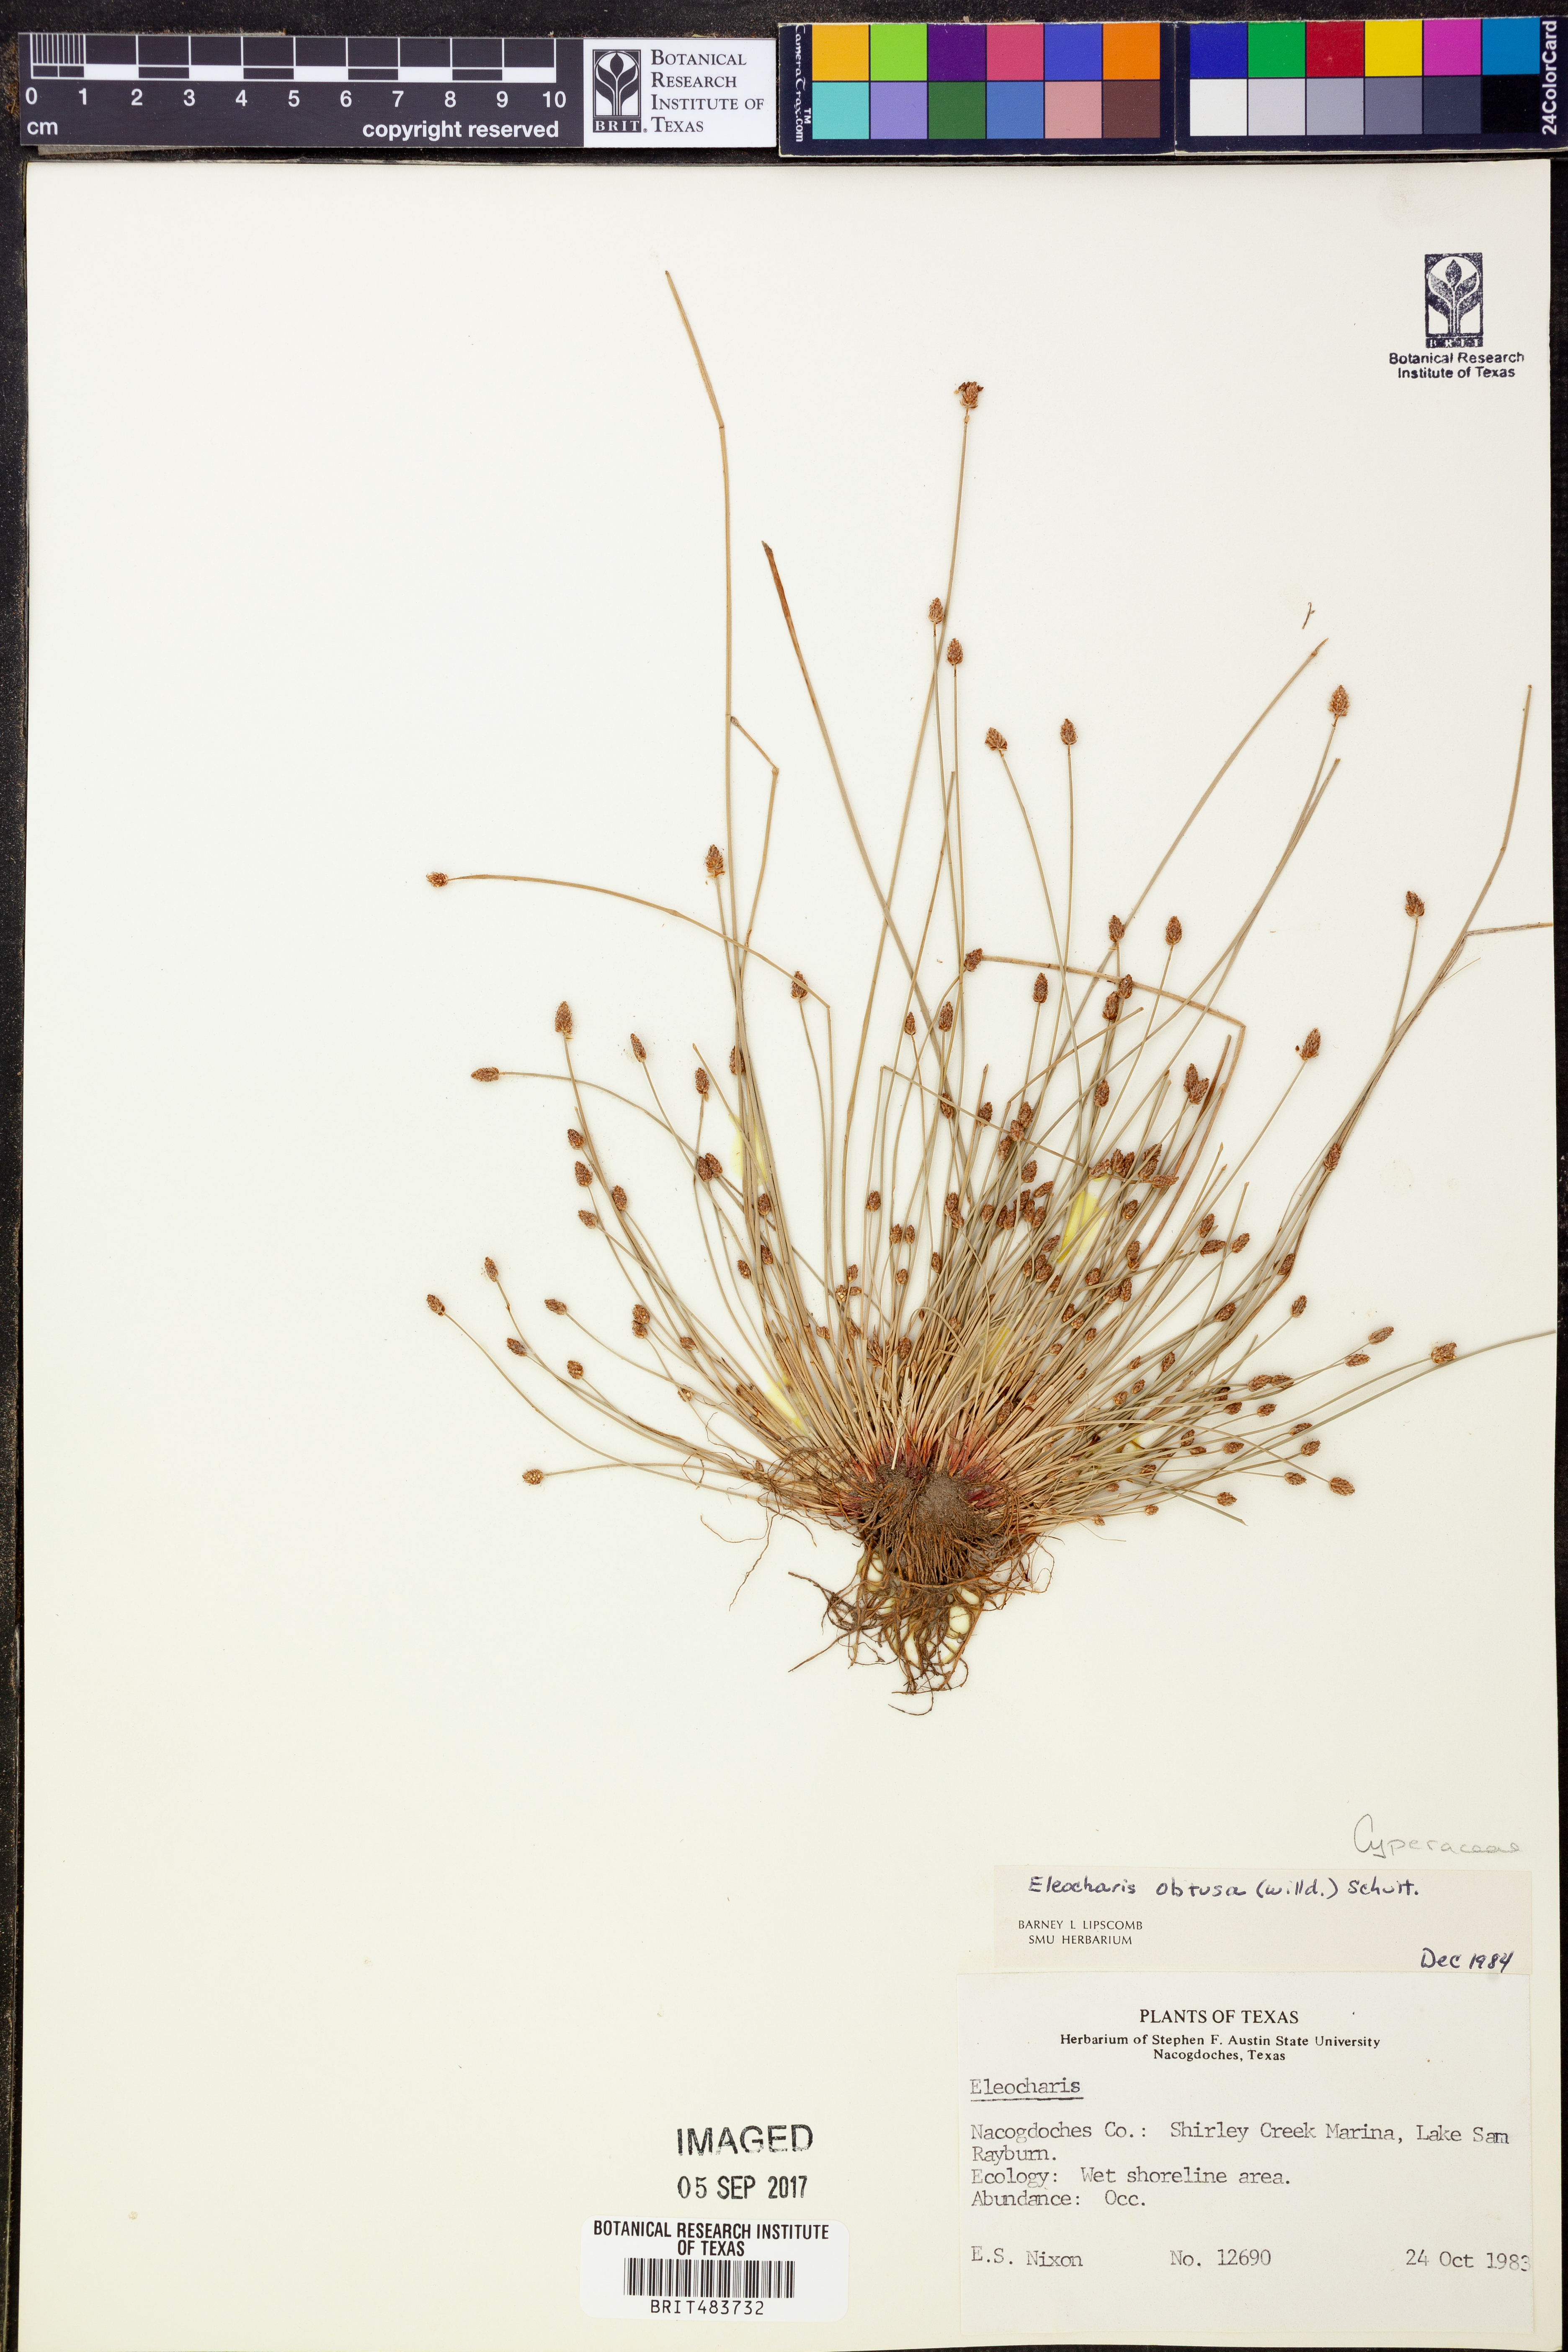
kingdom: Plantae
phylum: Tracheophyta
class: Liliopsida
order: Poales
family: Cyperaceae
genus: Eleocharis
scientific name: Eleocharis obtusa
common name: Blunt spikerush
